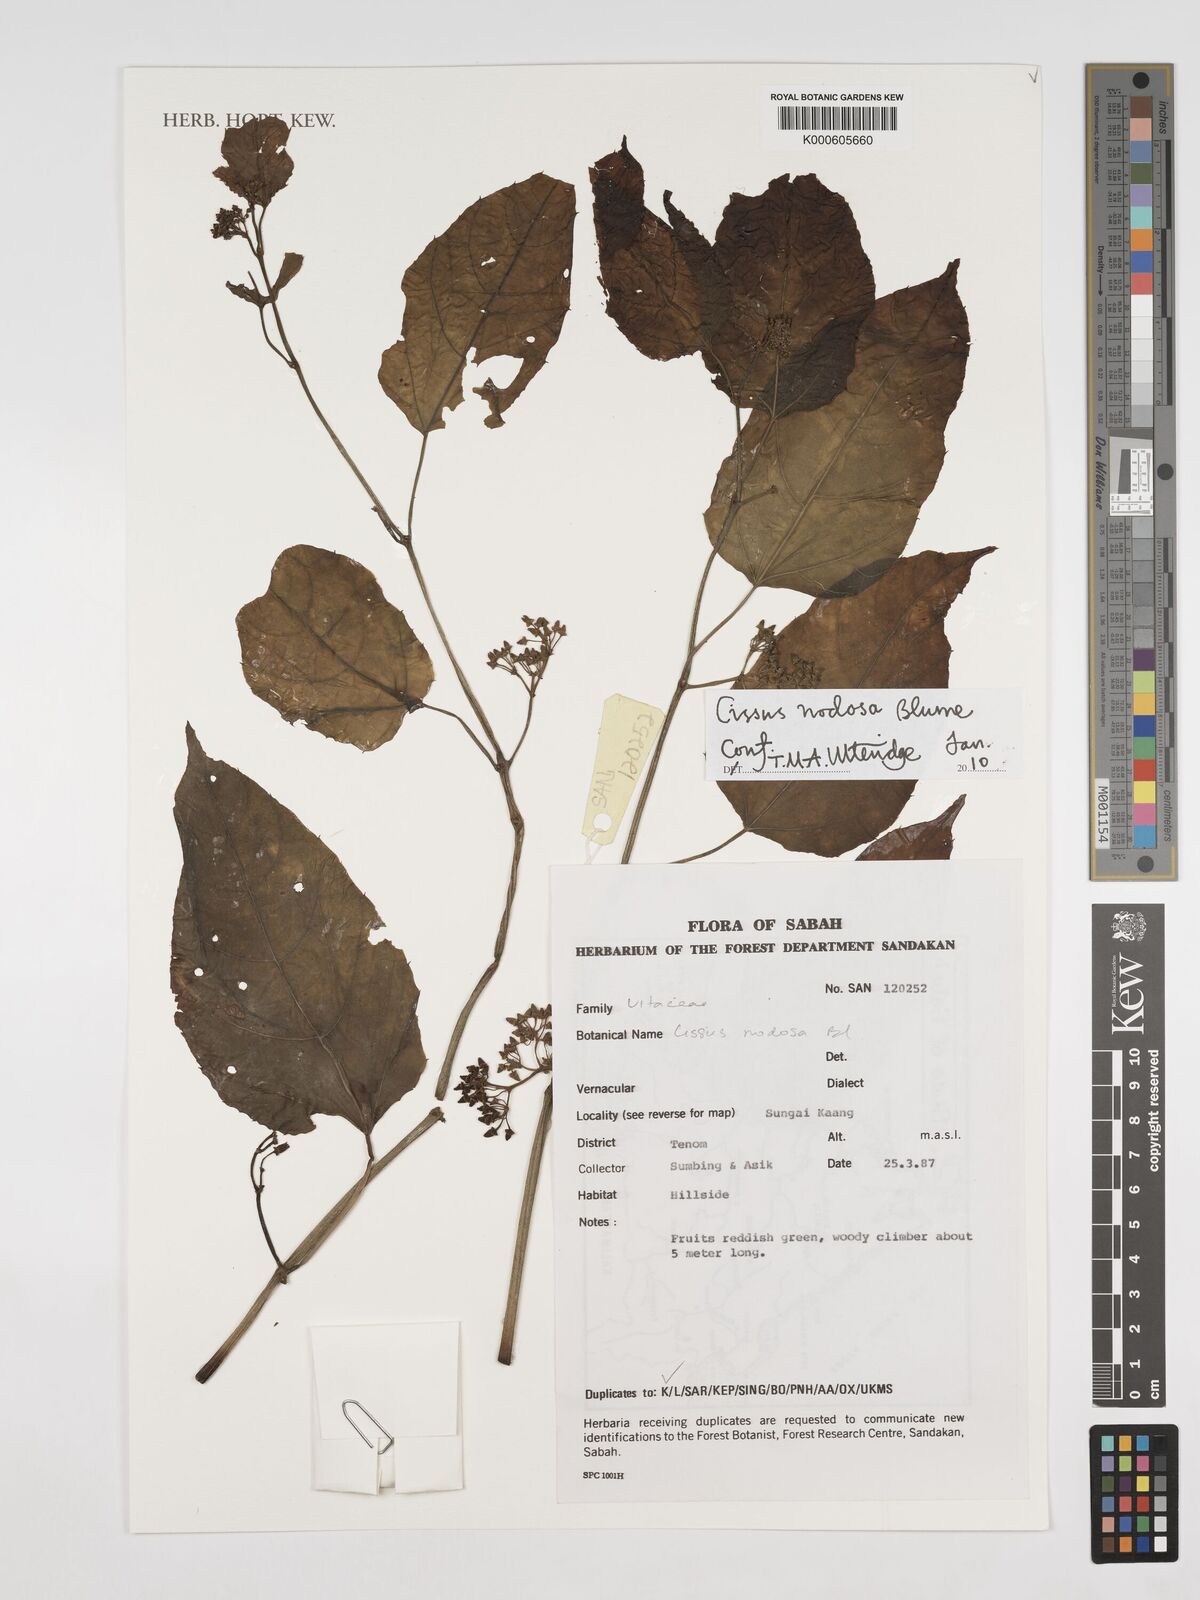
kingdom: Plantae
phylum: Tracheophyta
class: Magnoliopsida
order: Vitales
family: Vitaceae
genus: Cissus
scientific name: Cissus nodosa
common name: Grape ivy
